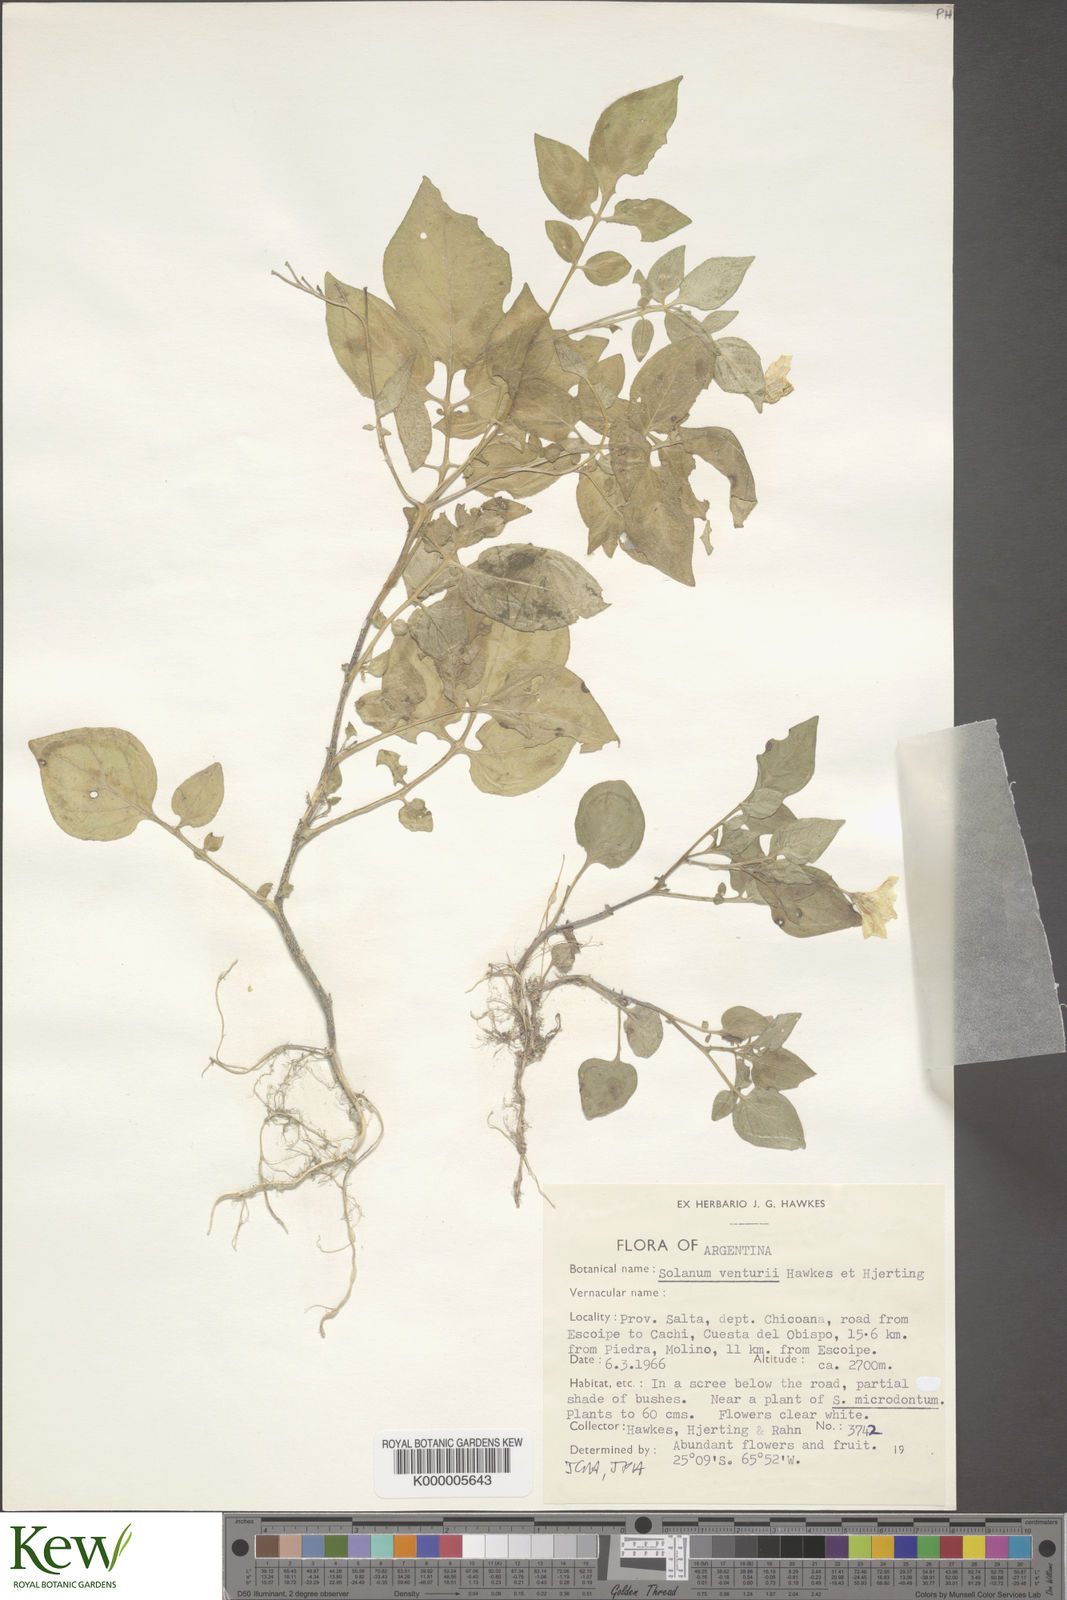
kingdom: Plantae
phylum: Tracheophyta
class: Magnoliopsida
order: Solanales
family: Solanaceae
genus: Solanum
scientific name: Solanum venturii
